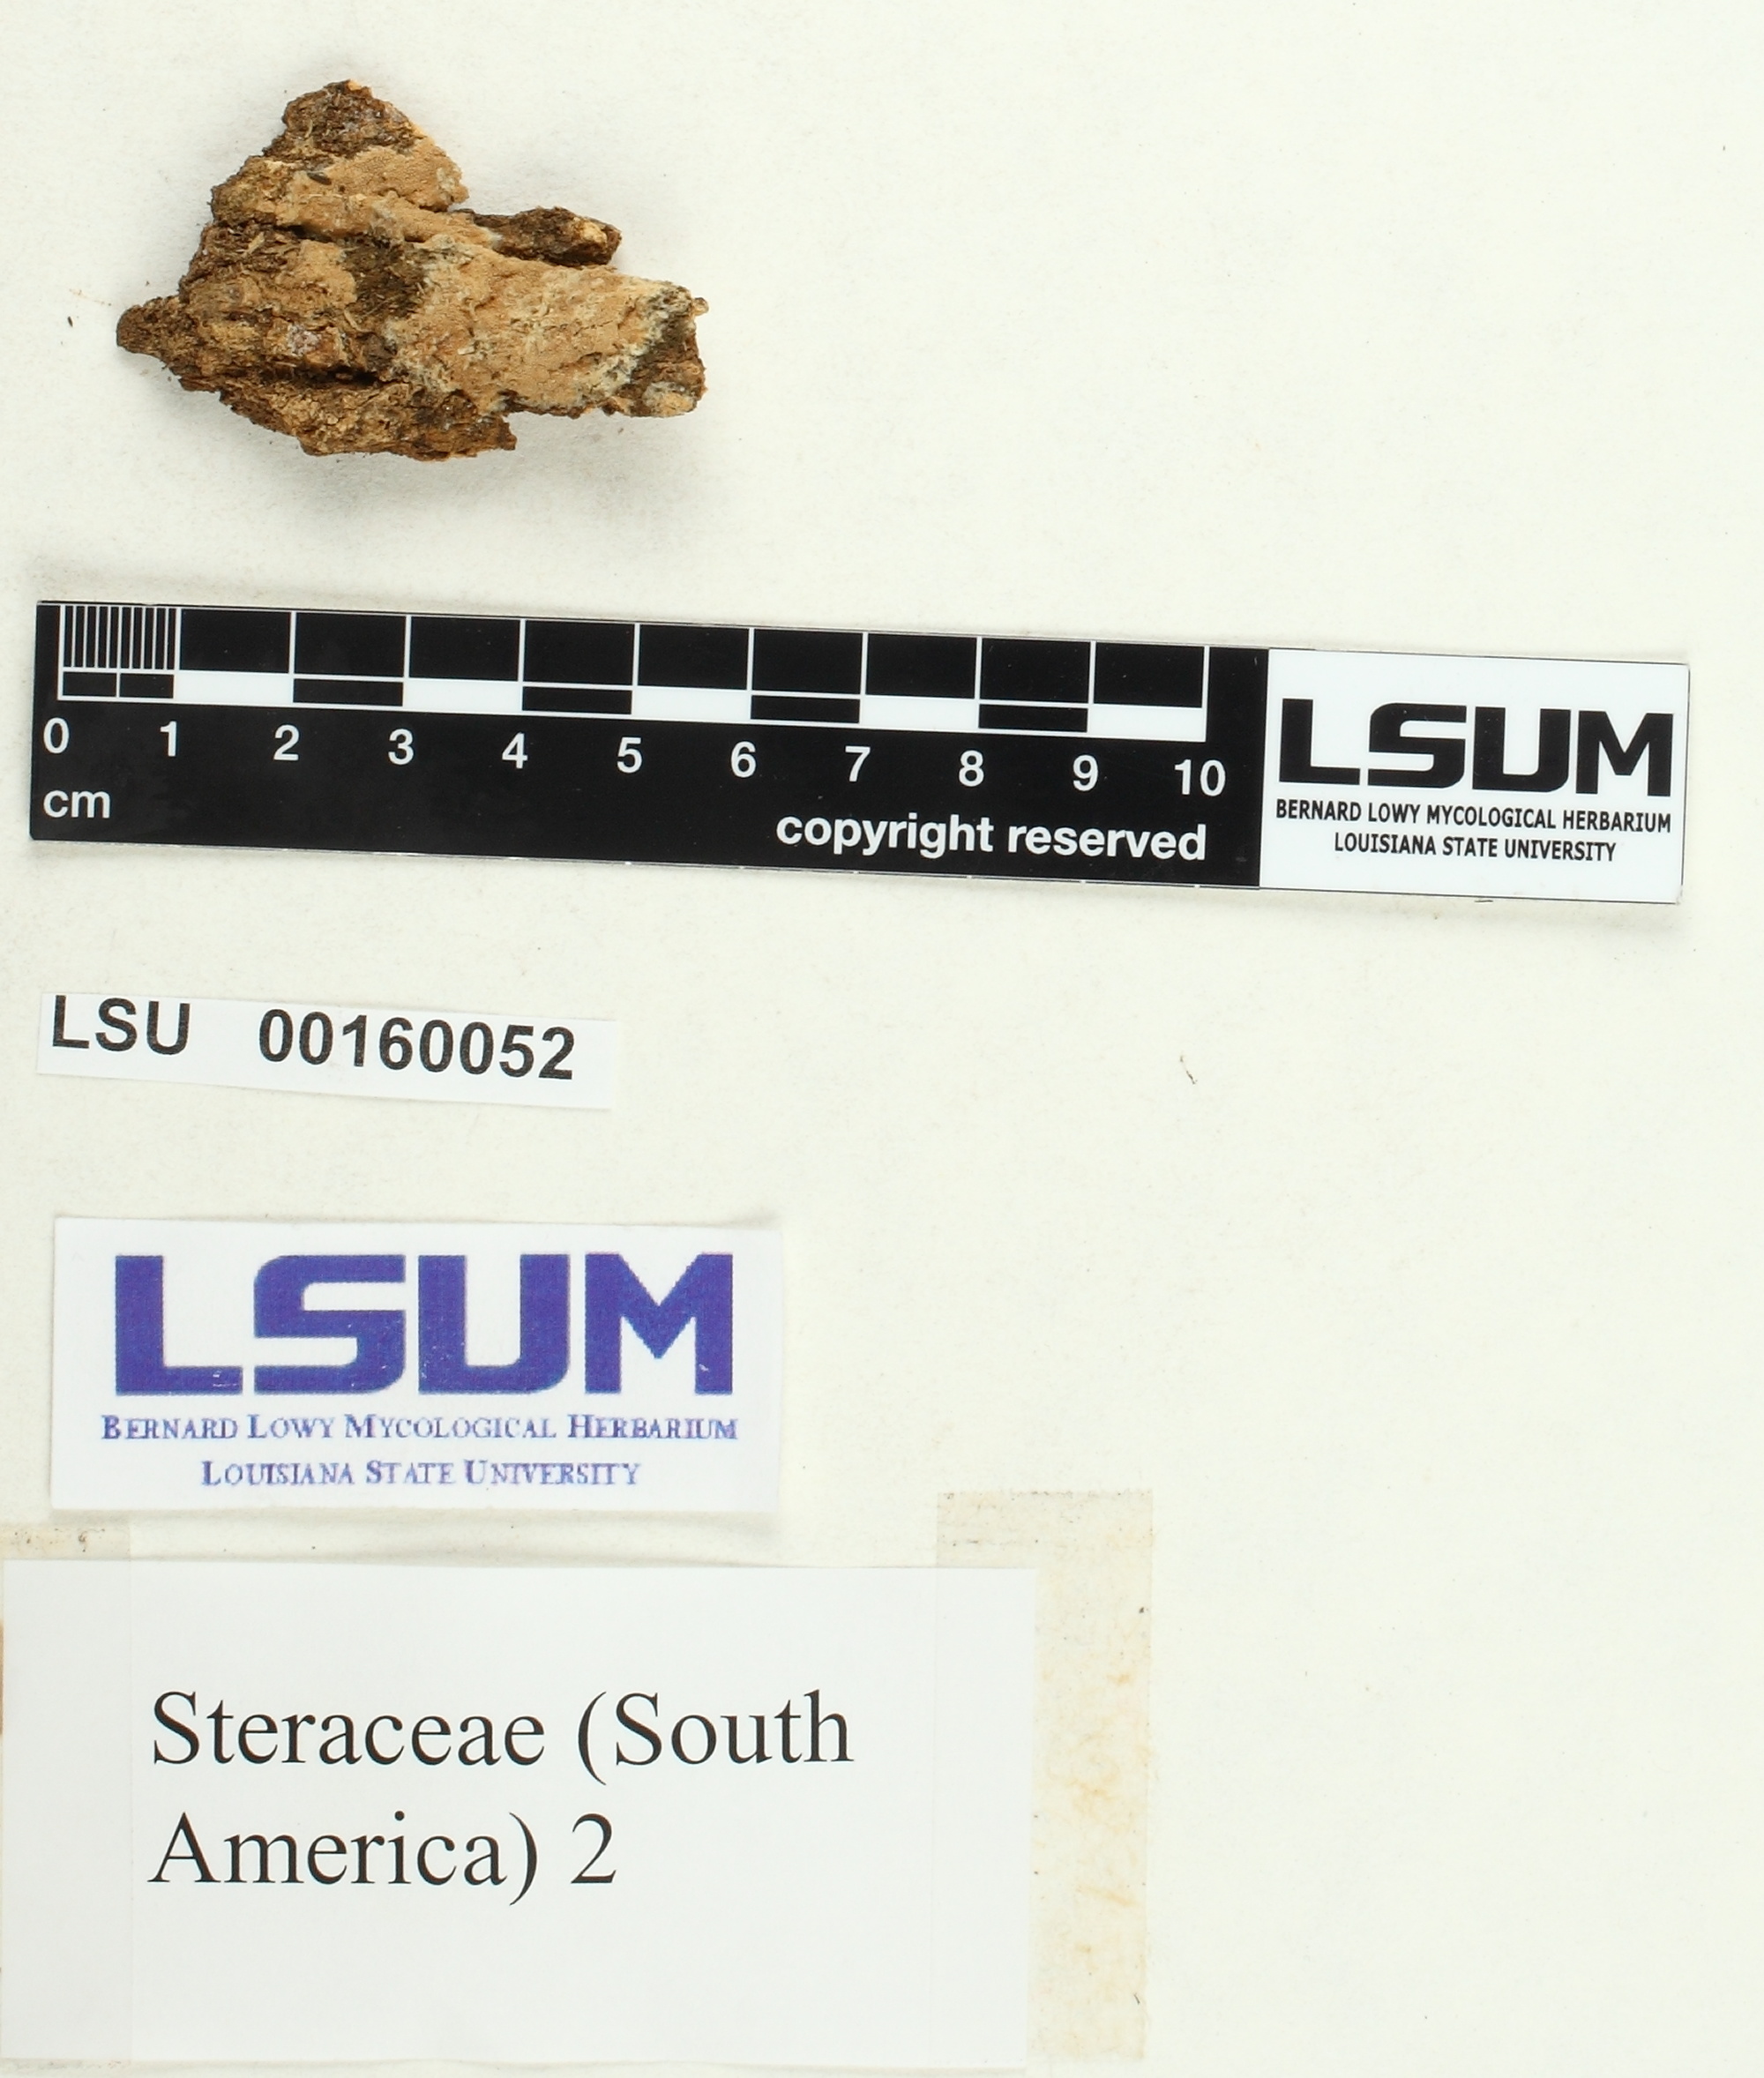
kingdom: Fungi
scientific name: Fungi
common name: Fungi
